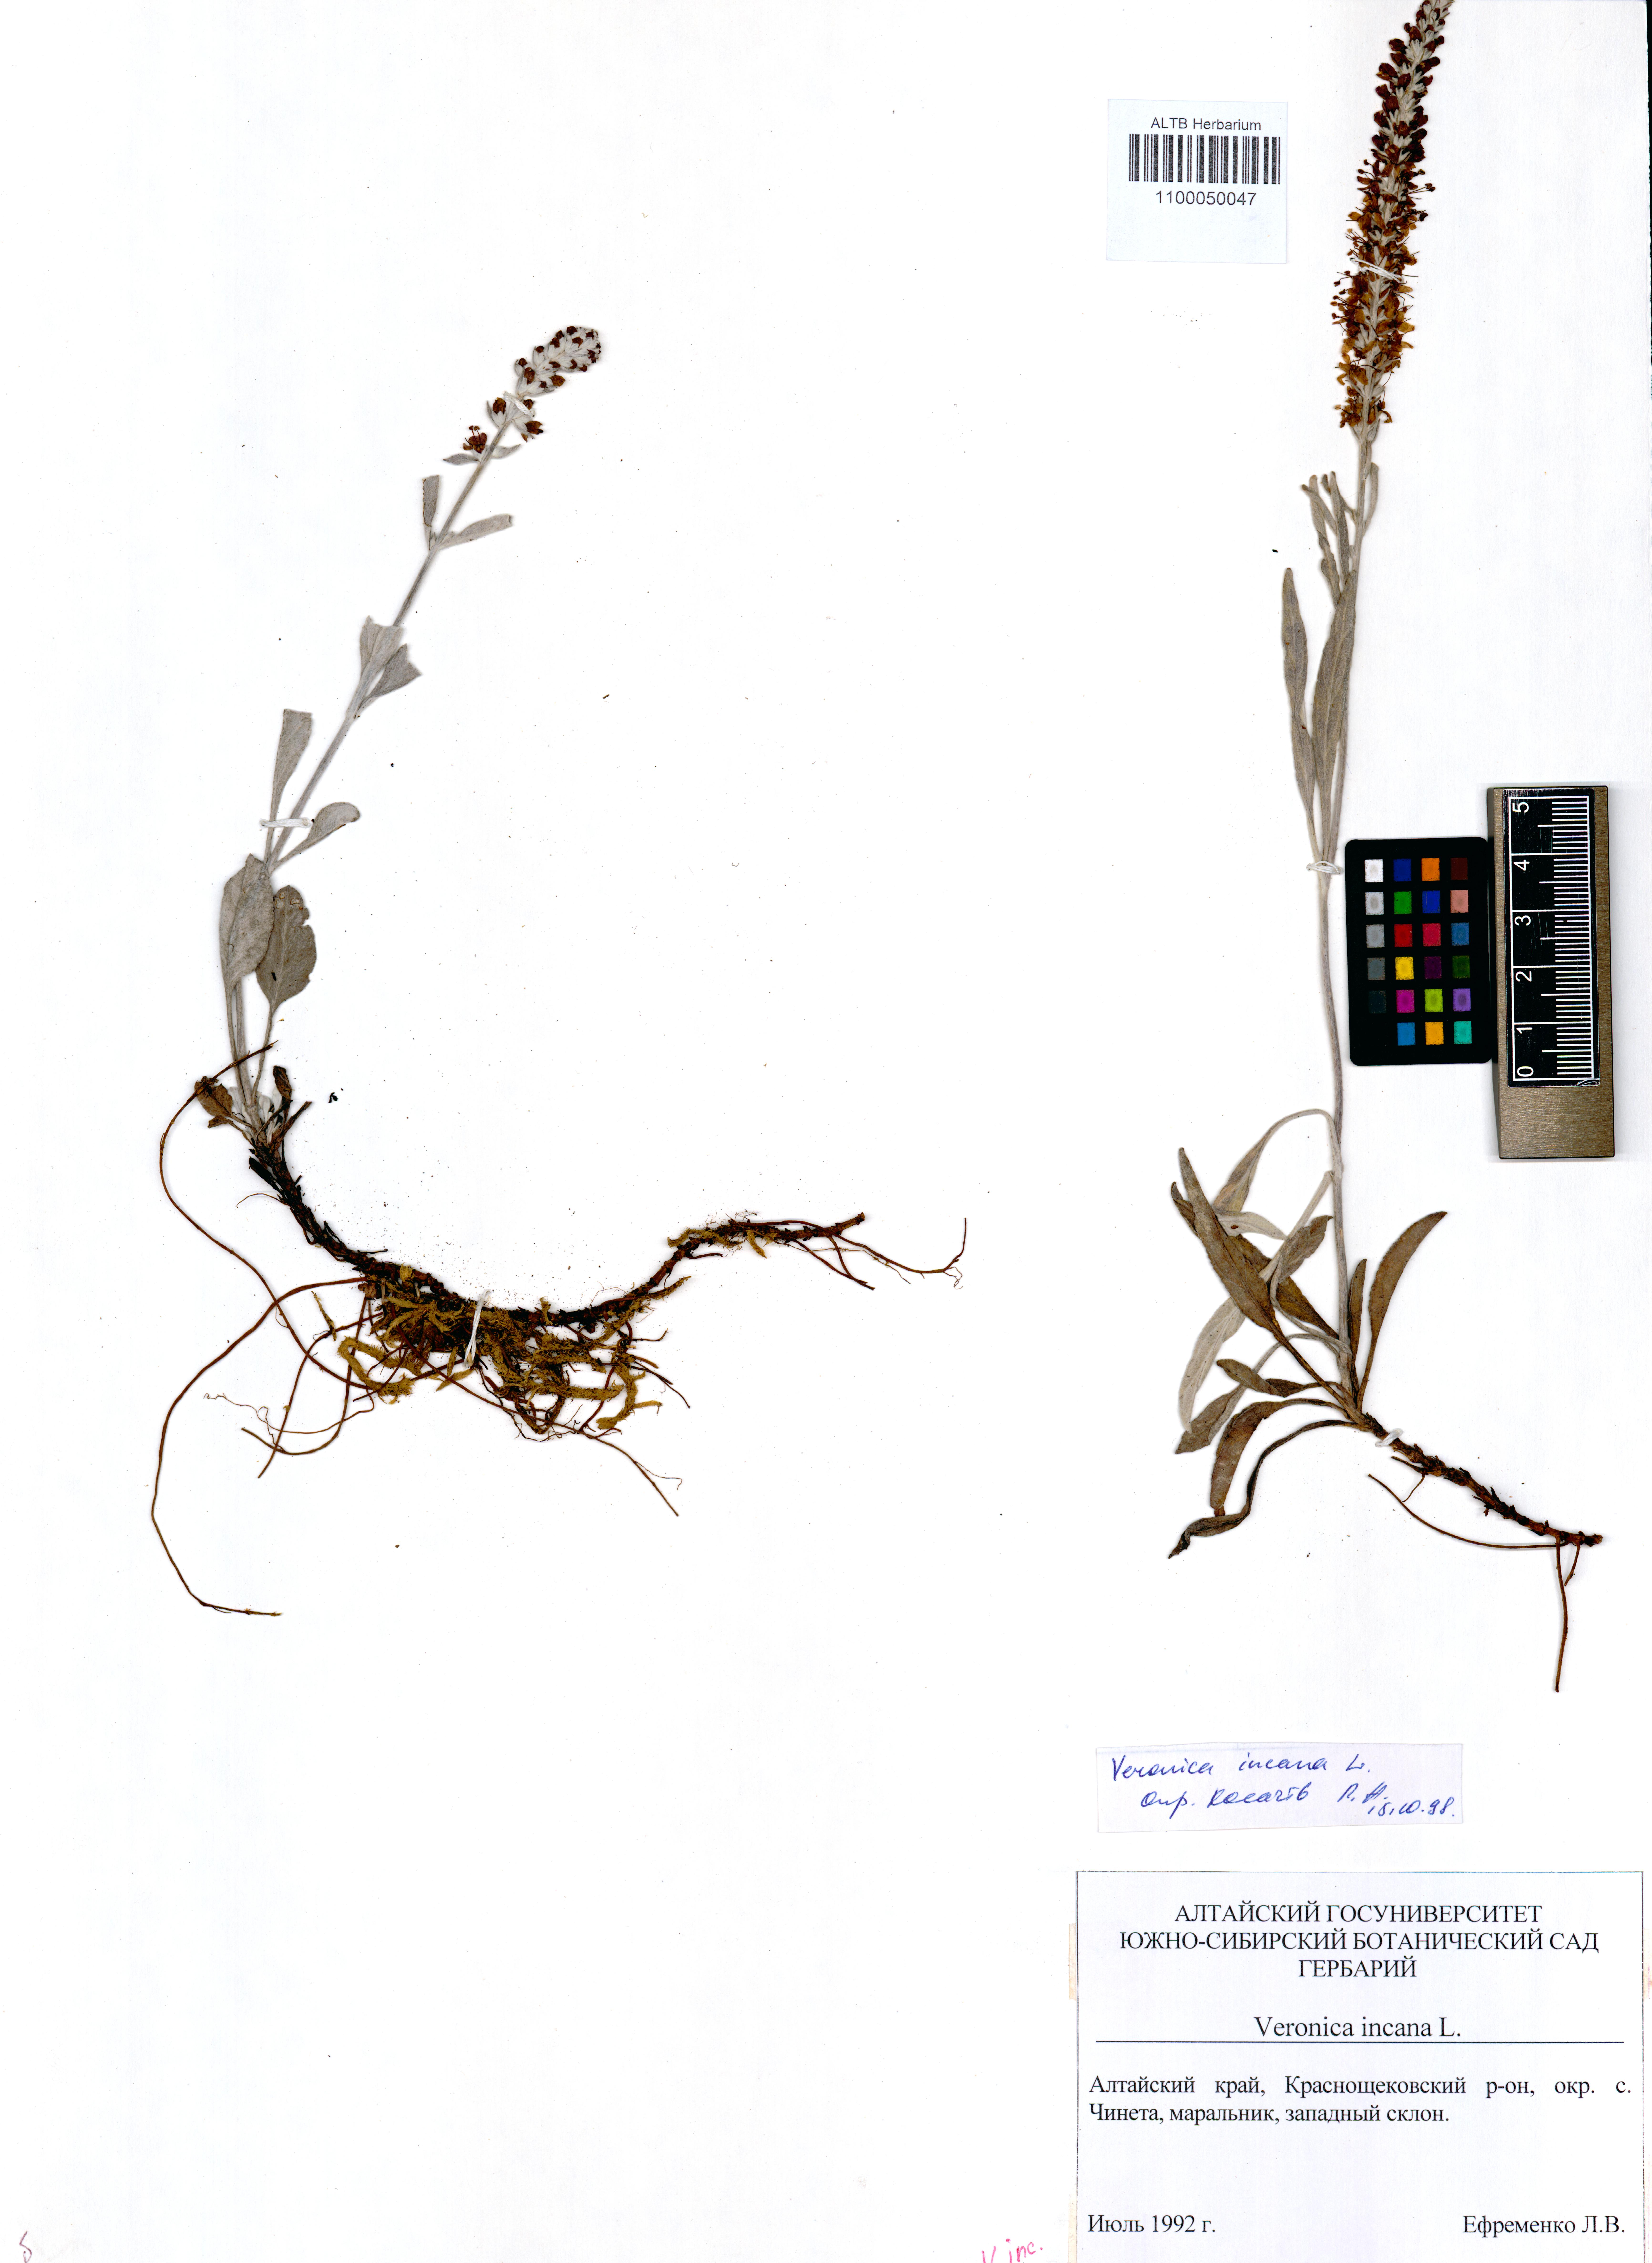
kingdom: Plantae
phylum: Tracheophyta
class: Magnoliopsida
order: Lamiales
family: Plantaginaceae
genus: Veronica
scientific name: Veronica incana
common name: Silver speedwell
